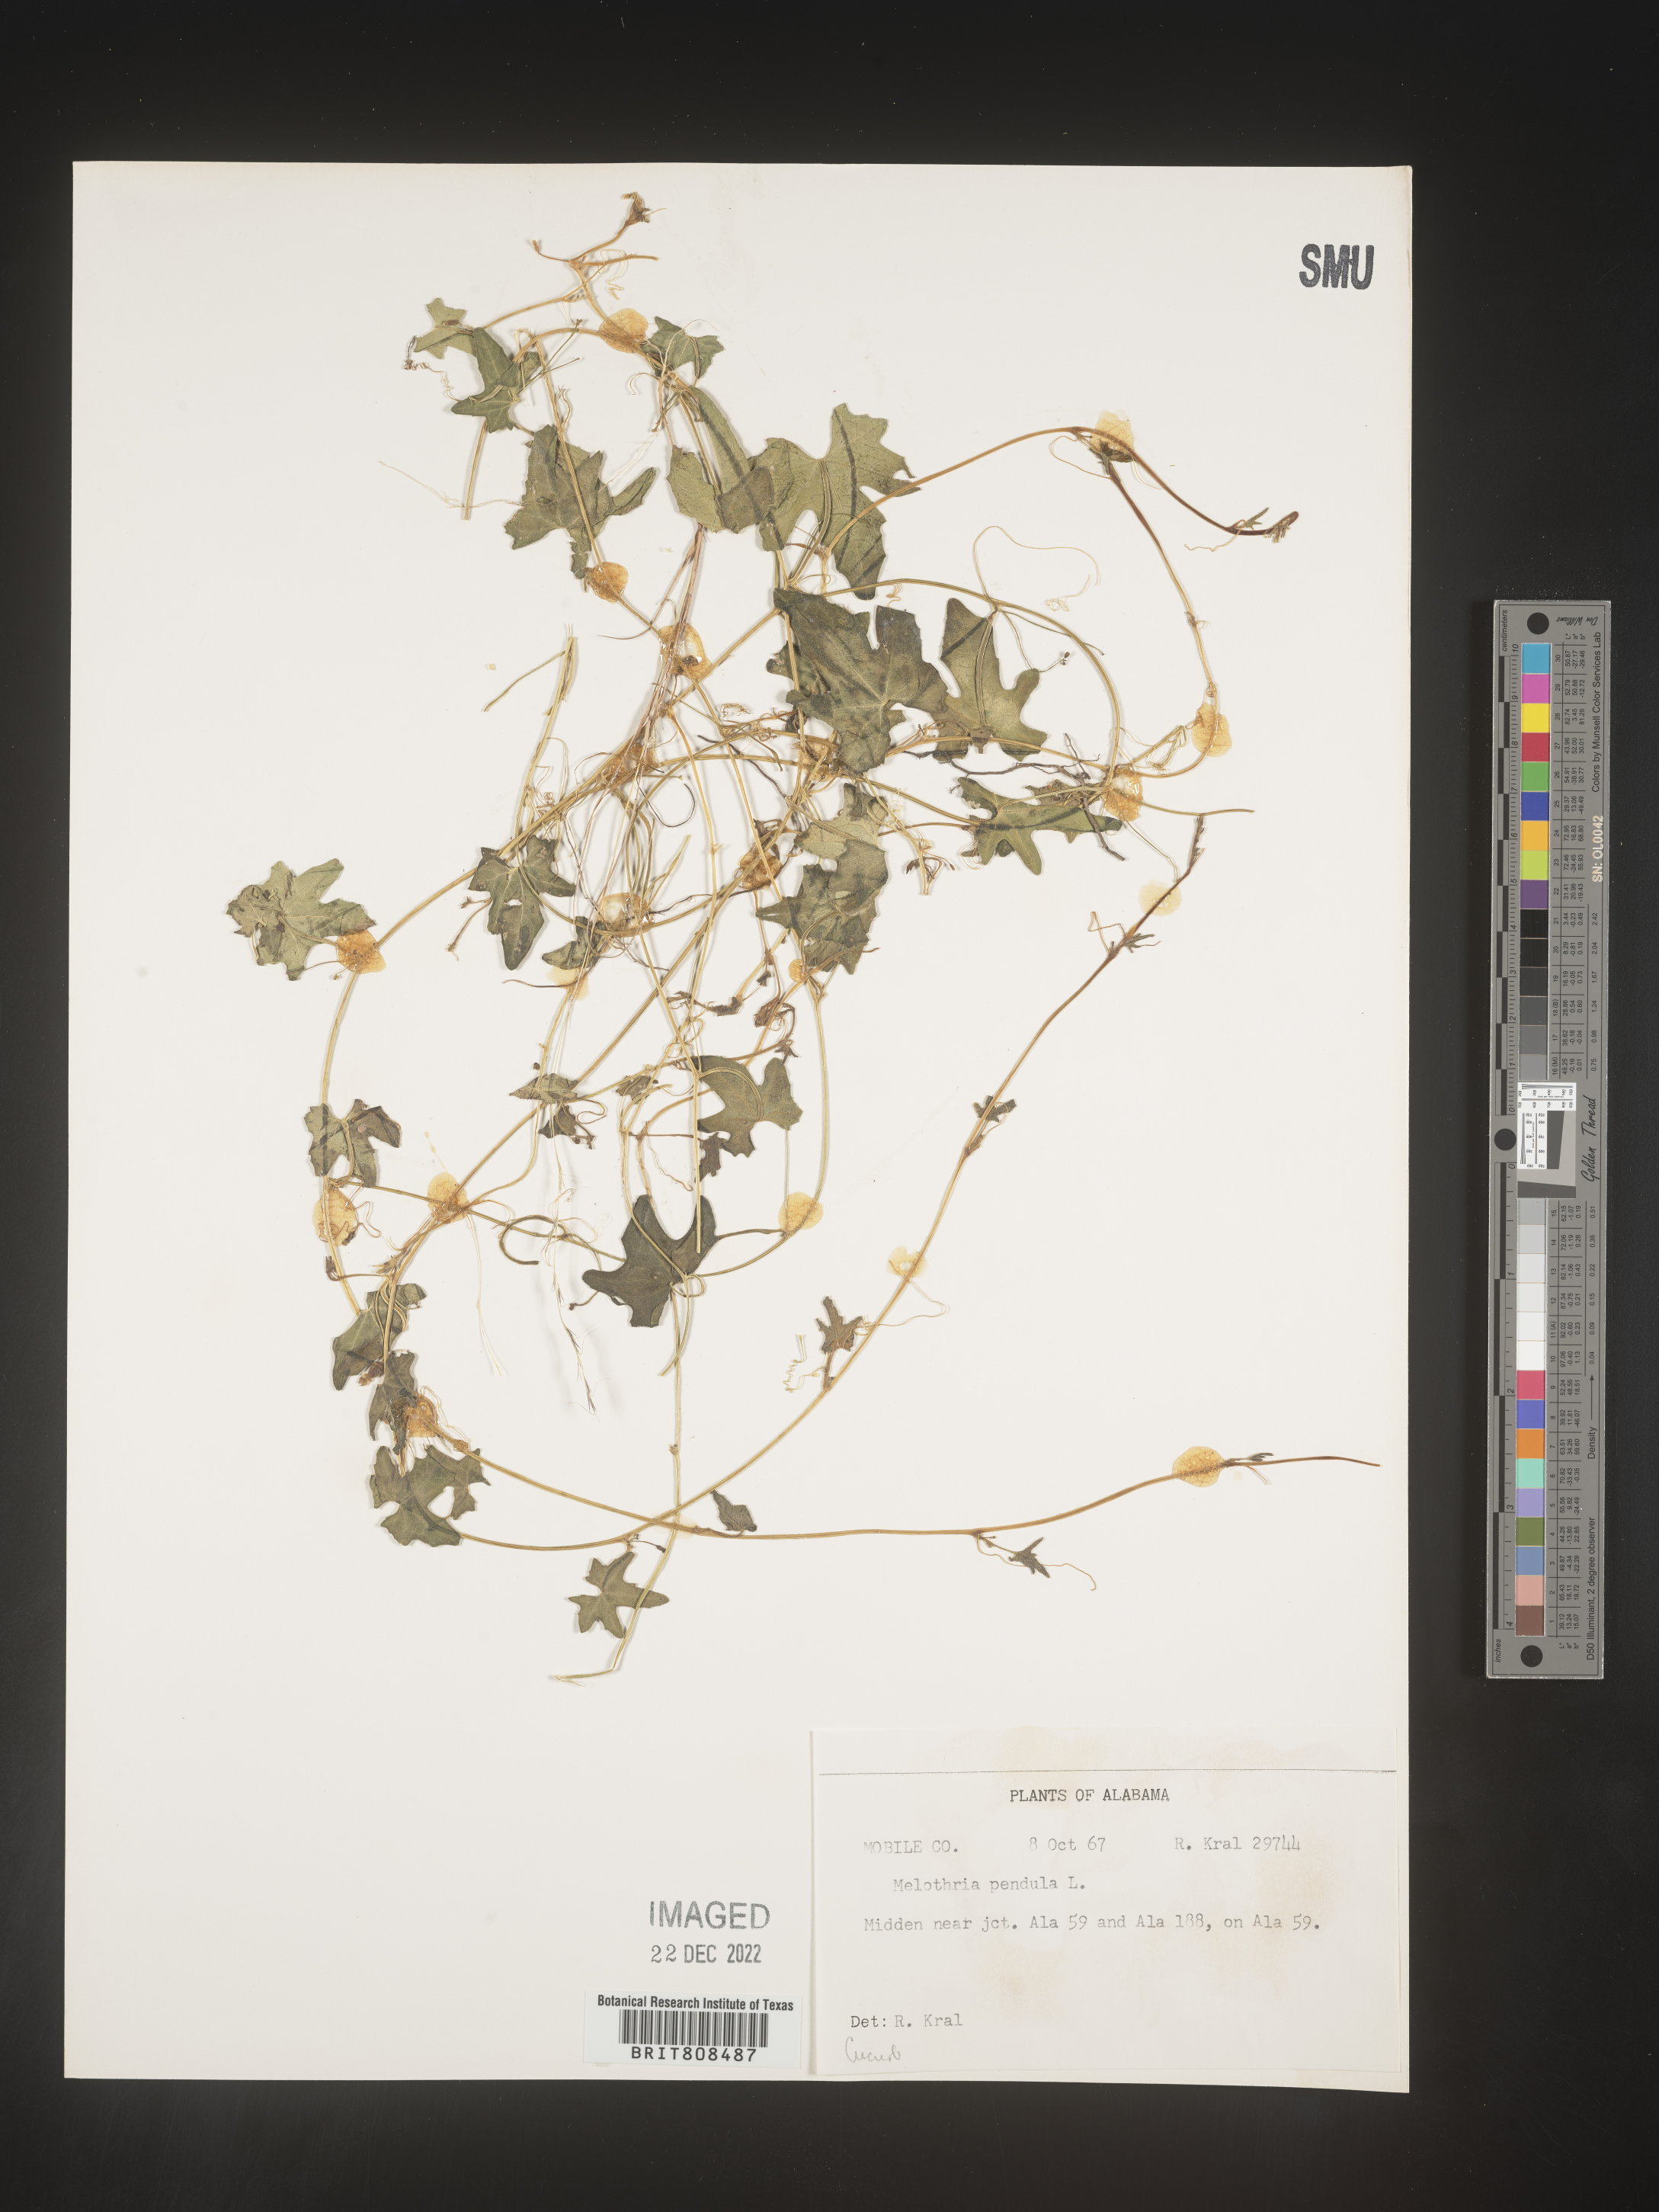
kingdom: Plantae
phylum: Tracheophyta
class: Magnoliopsida
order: Cucurbitales
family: Cucurbitaceae
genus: Melothria
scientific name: Melothria pendula
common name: Creeping-cucumber
